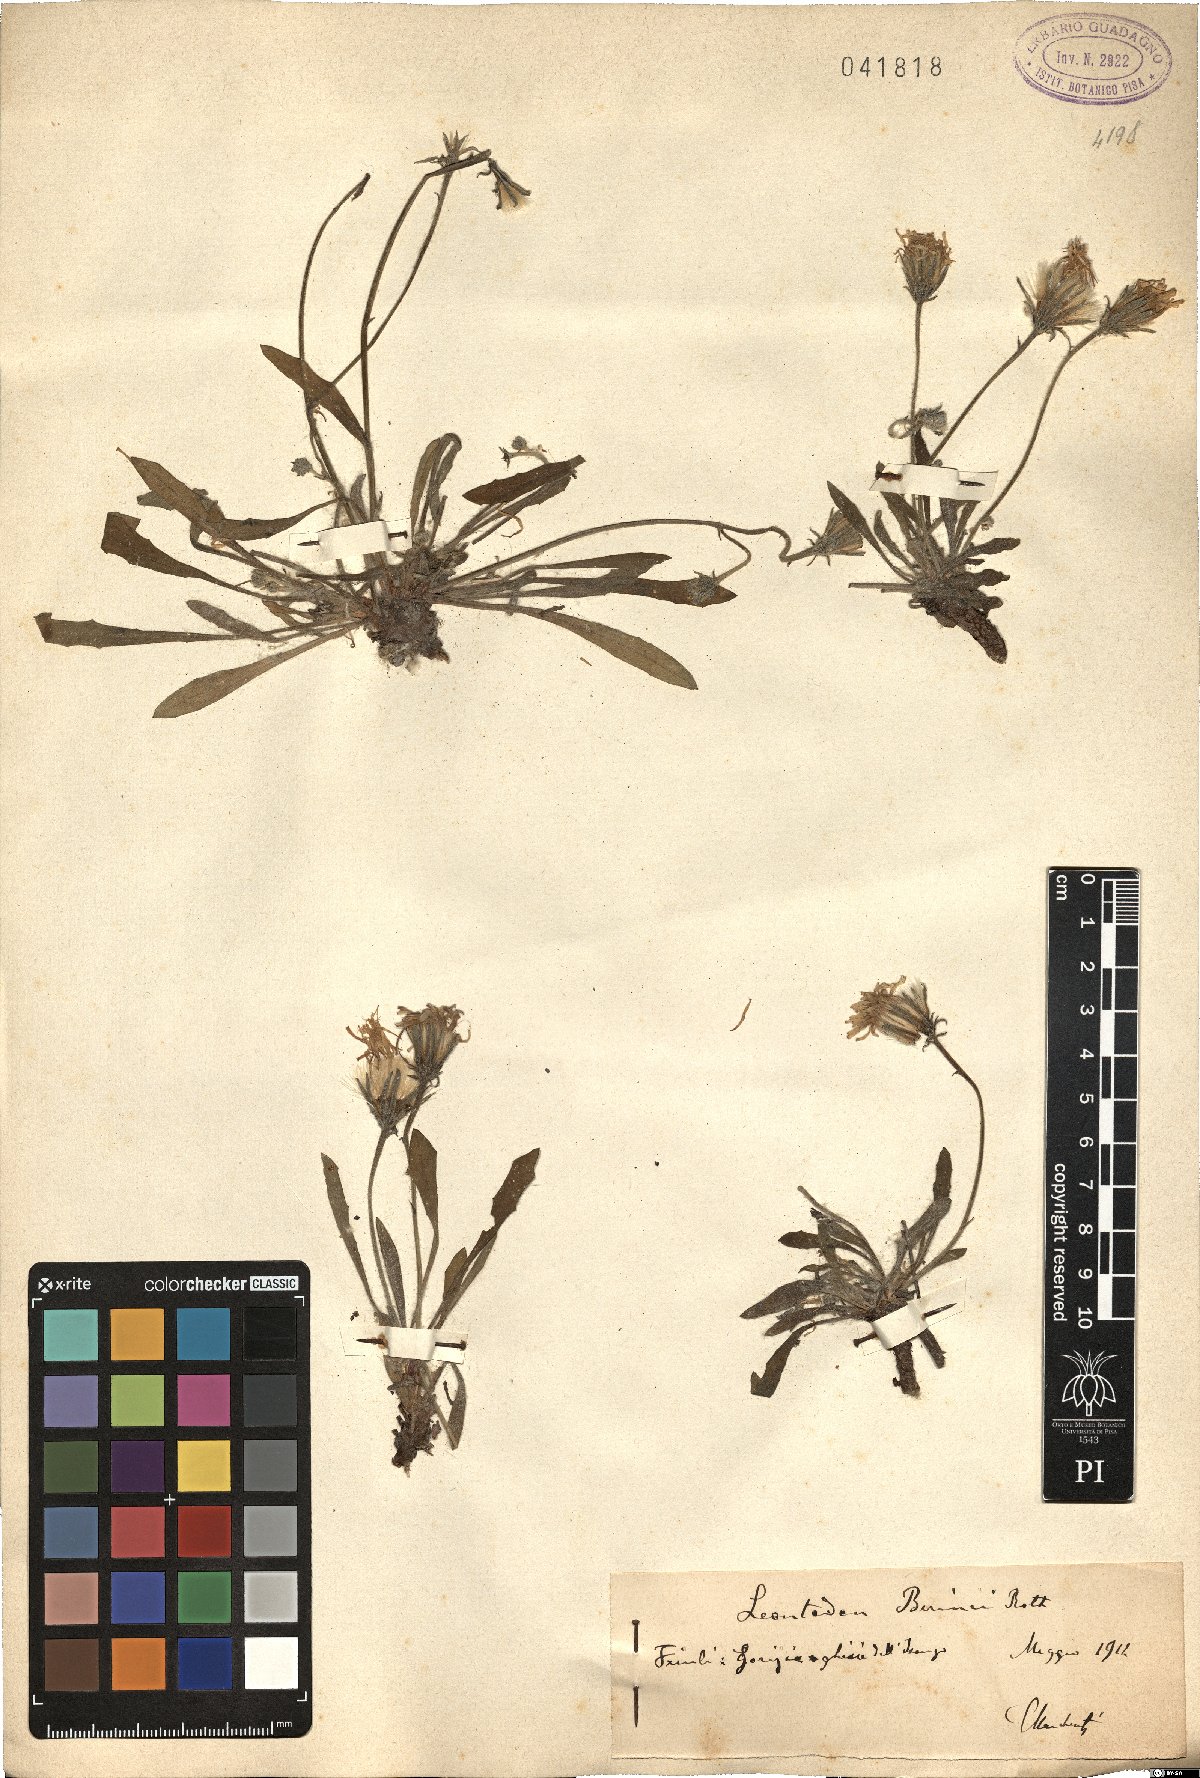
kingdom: Plantae
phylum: Tracheophyta
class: Magnoliopsida
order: Asterales
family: Asteraceae
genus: Leontodon
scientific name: Leontodon berinii
